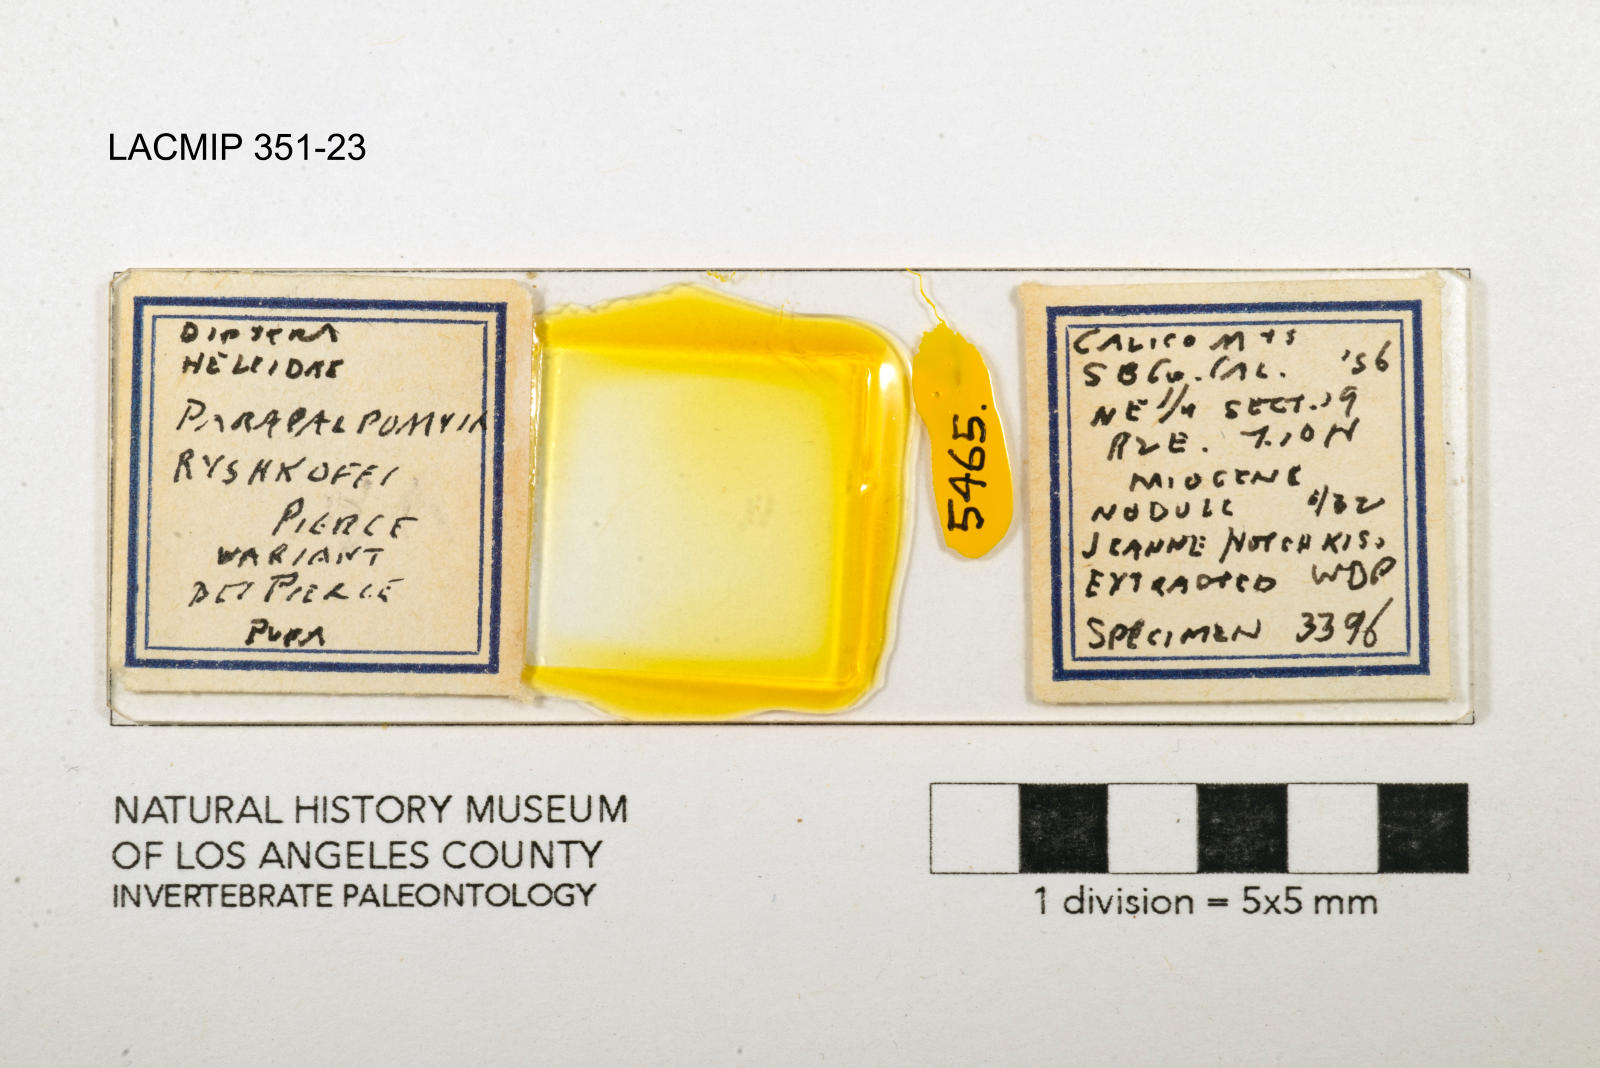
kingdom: Animalia
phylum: Arthropoda
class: Insecta
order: Diptera
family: Ceratopogonidae
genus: Palpomyia
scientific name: Palpomyia ryshkoffi
